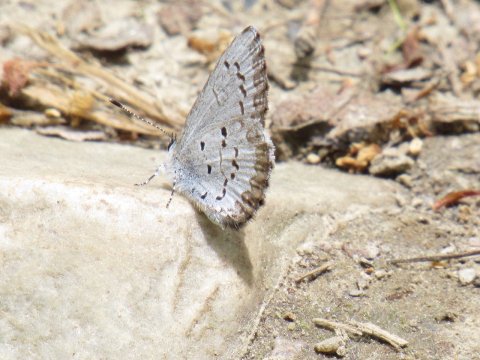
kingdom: Animalia
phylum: Arthropoda
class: Insecta
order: Lepidoptera
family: Lycaenidae
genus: Celastrina
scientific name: Celastrina lucia
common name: Northern Spring Azure
